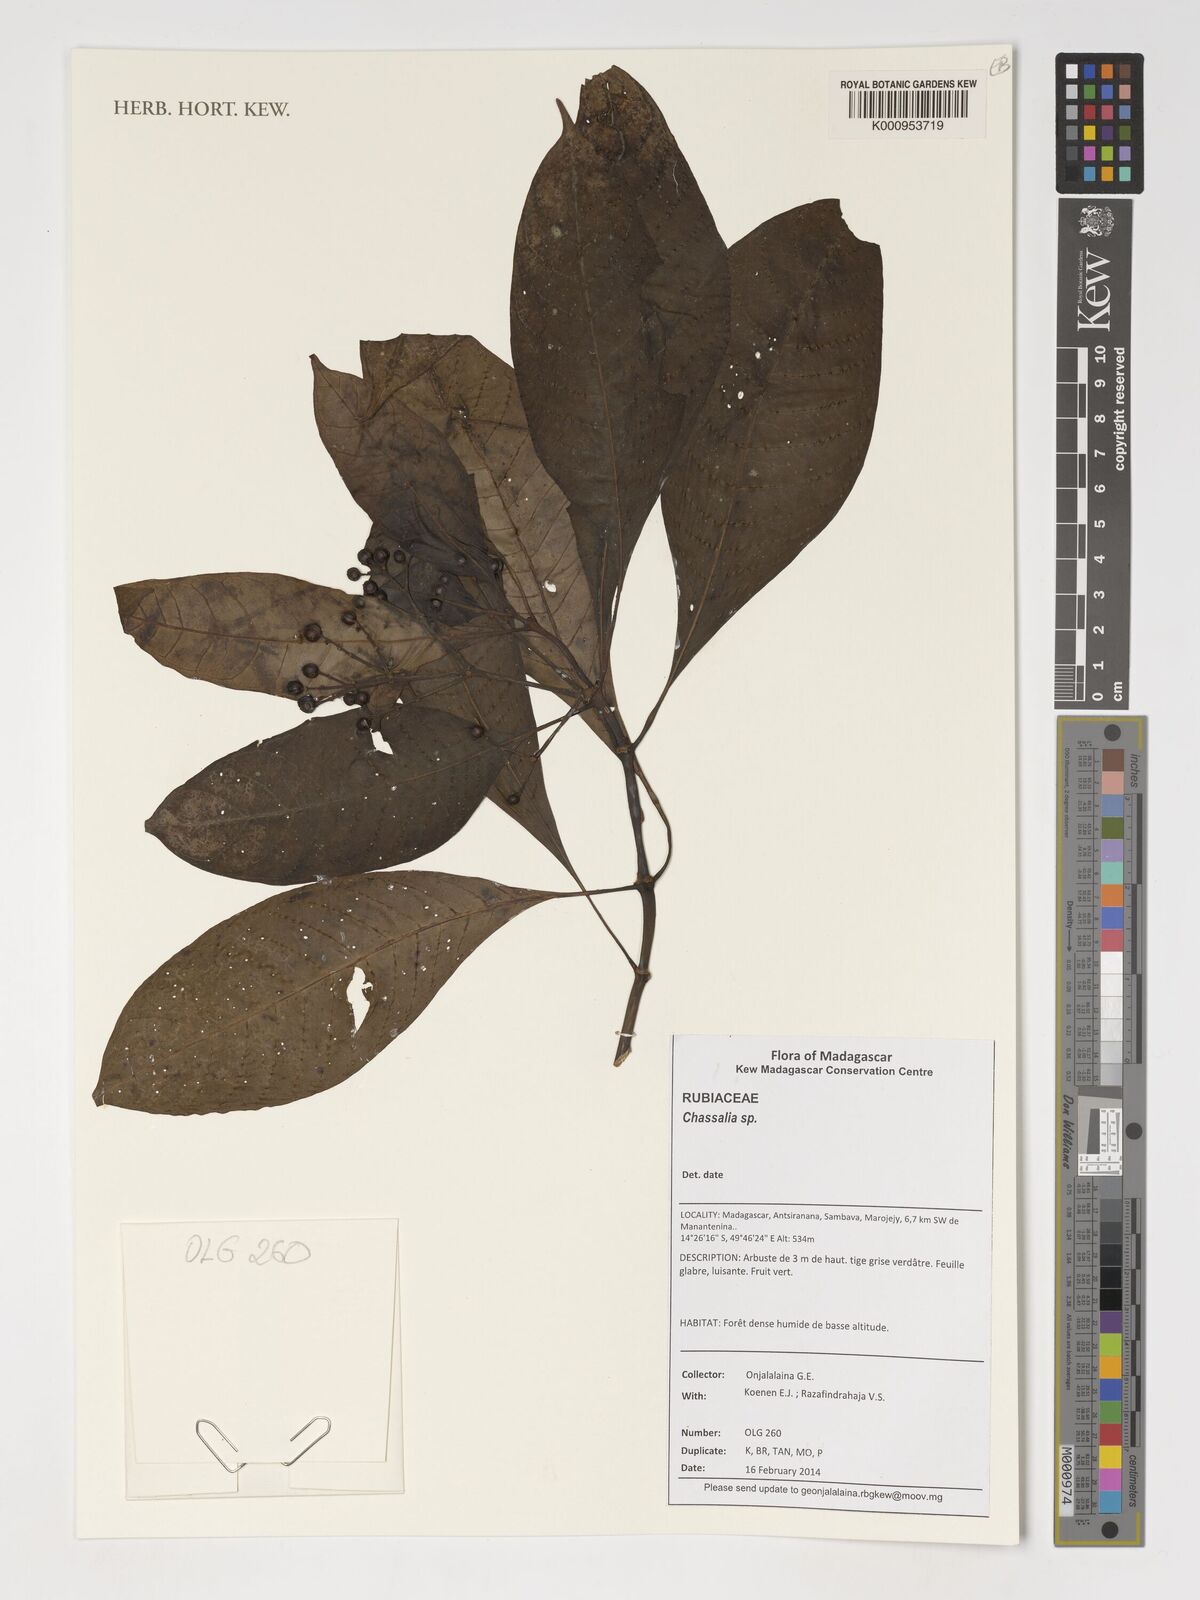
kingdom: Plantae
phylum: Tracheophyta
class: Magnoliopsida
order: Gentianales
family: Rubiaceae
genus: Chassalia
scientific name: Chassalia
